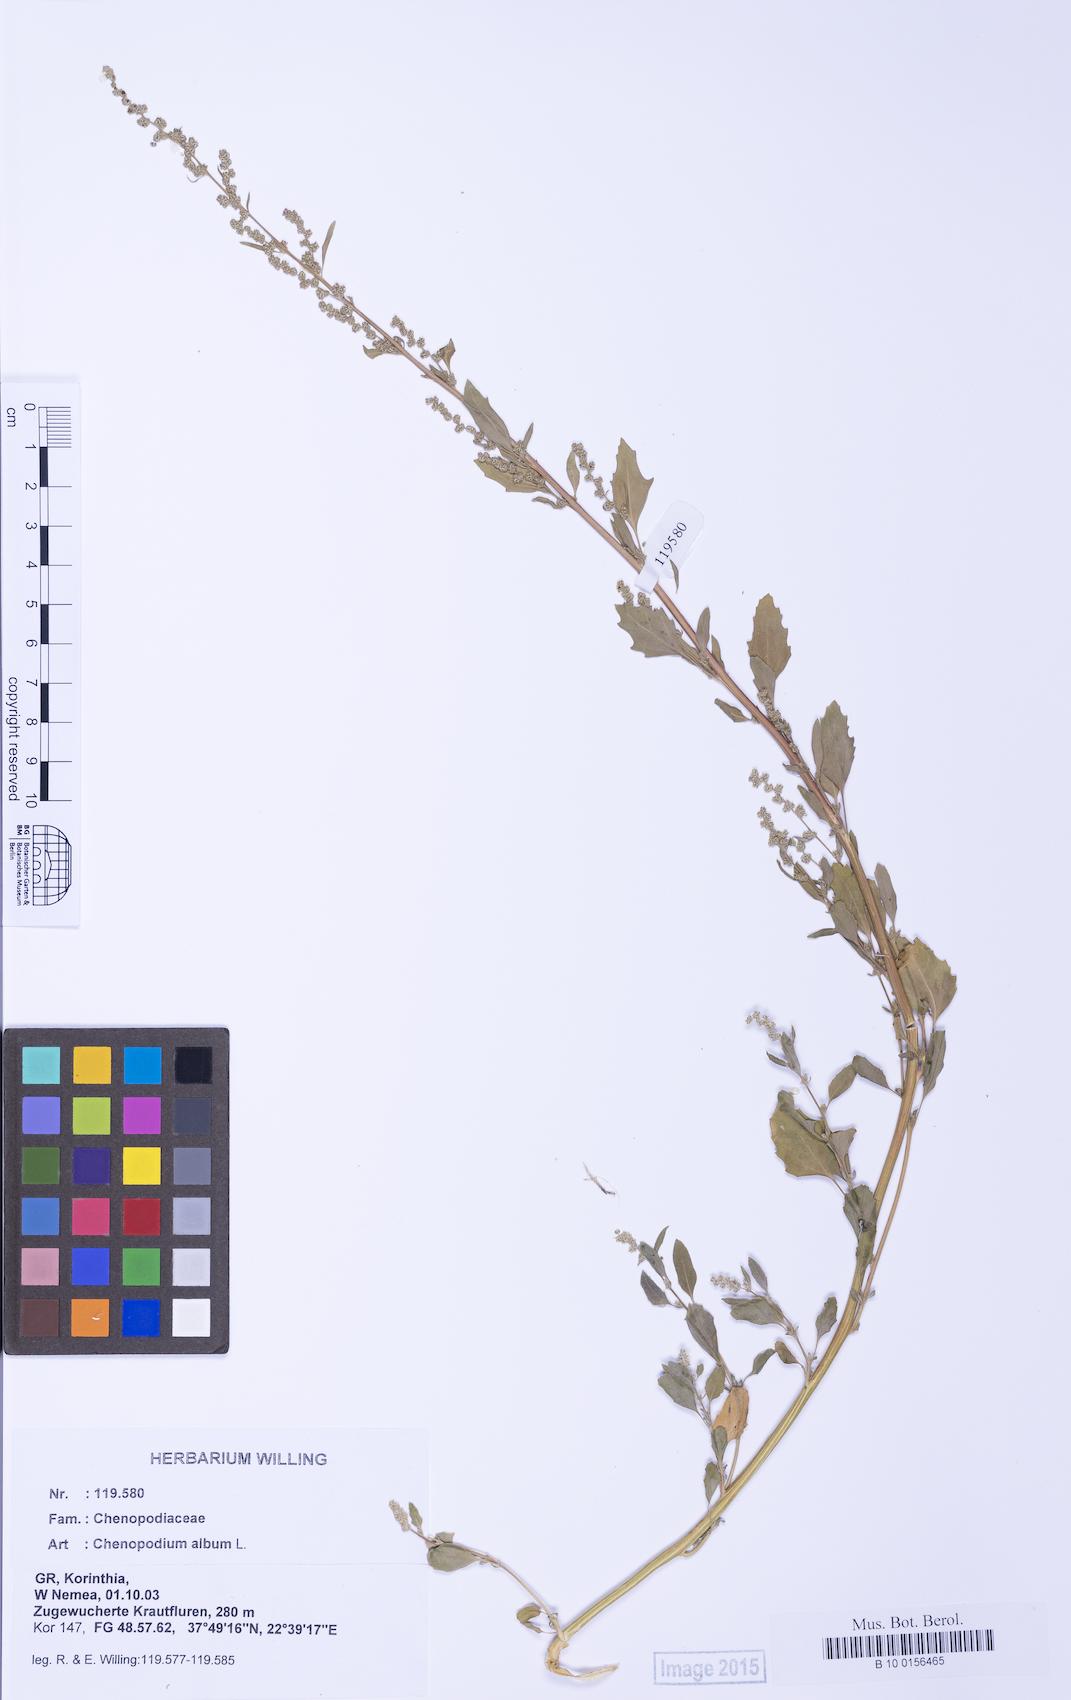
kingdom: Plantae
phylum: Tracheophyta
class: Magnoliopsida
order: Caryophyllales
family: Amaranthaceae
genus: Chenopodium
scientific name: Chenopodium album
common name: Fat-hen
